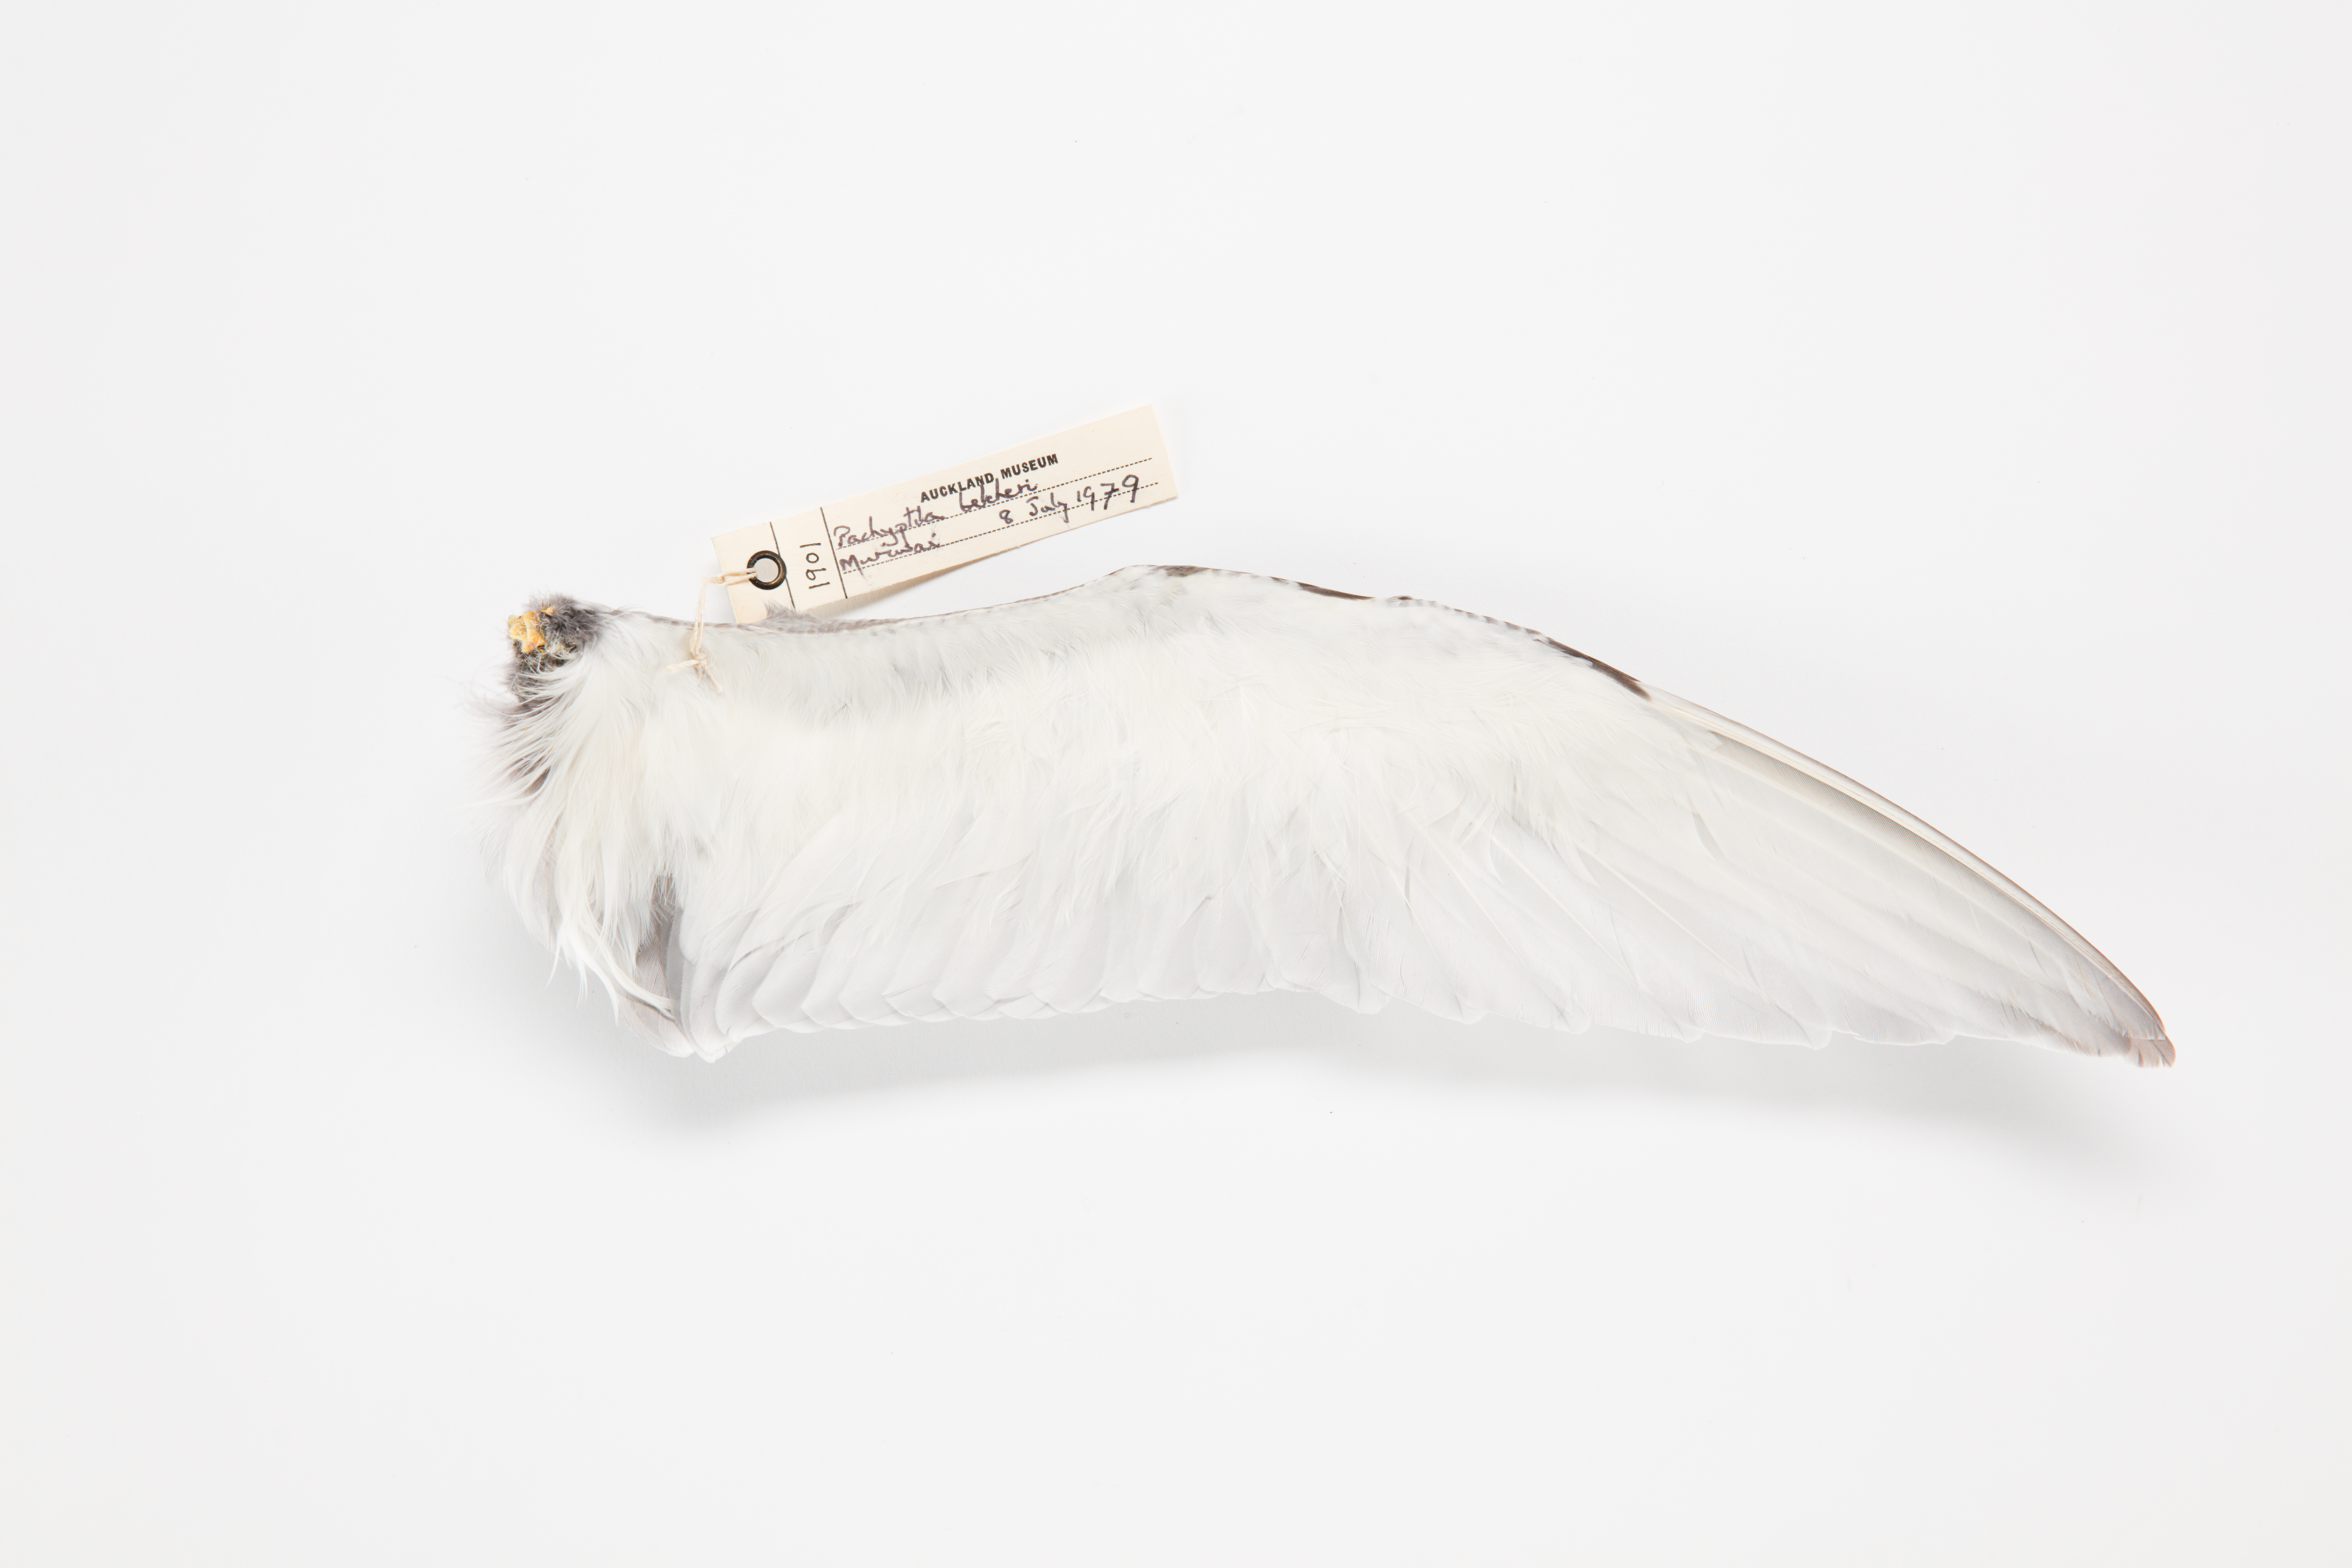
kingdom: Animalia
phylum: Chordata
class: Aves
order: Procellariiformes
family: Procellariidae
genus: Pachyptila
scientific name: Pachyptila belcheri
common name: Slender-billed prion
